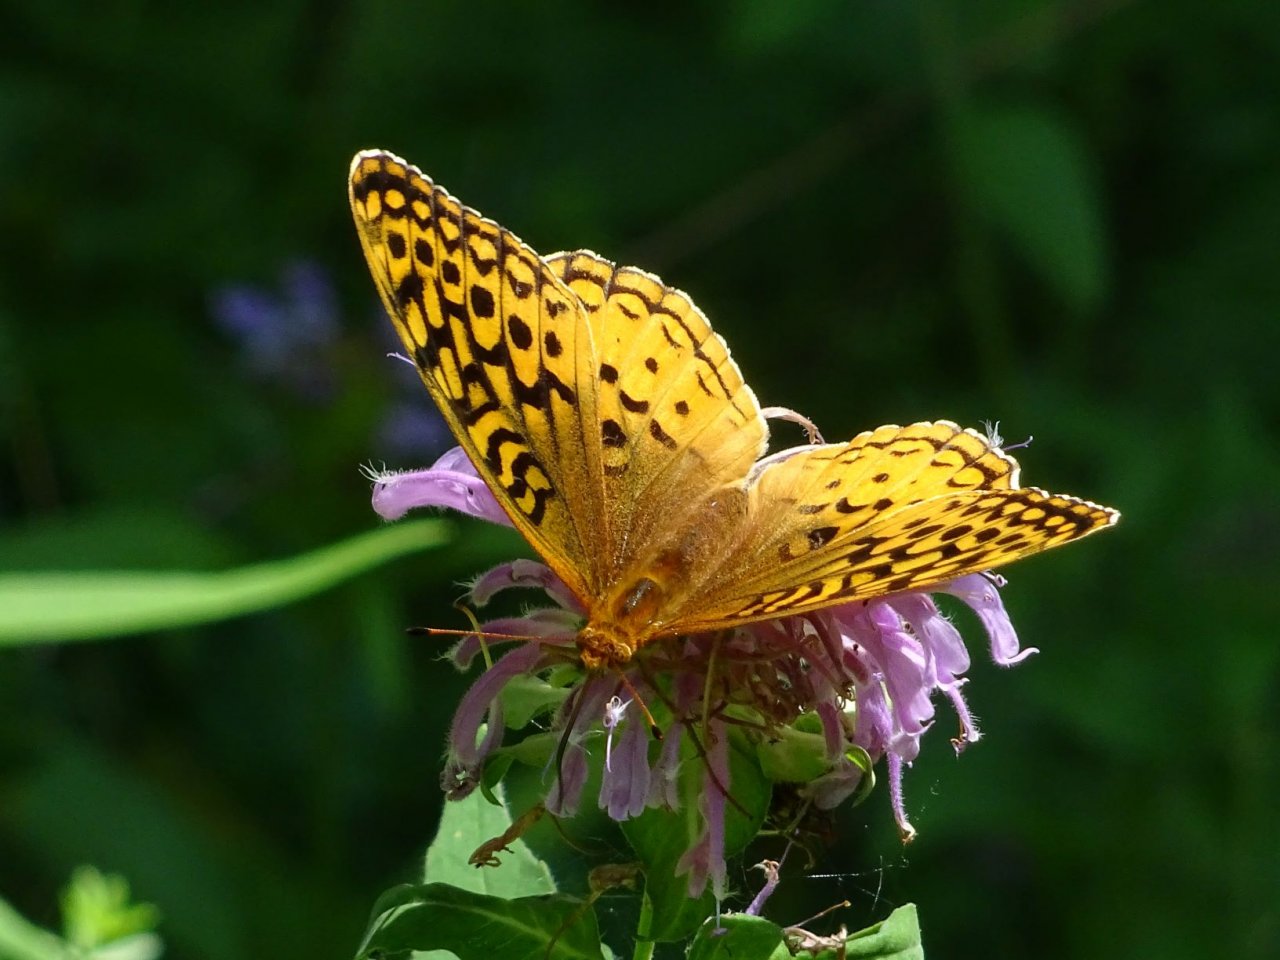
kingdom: Animalia
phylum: Arthropoda
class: Insecta
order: Lepidoptera
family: Nymphalidae
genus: Speyeria
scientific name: Speyeria cybele
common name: Great Spangled Fritillary
